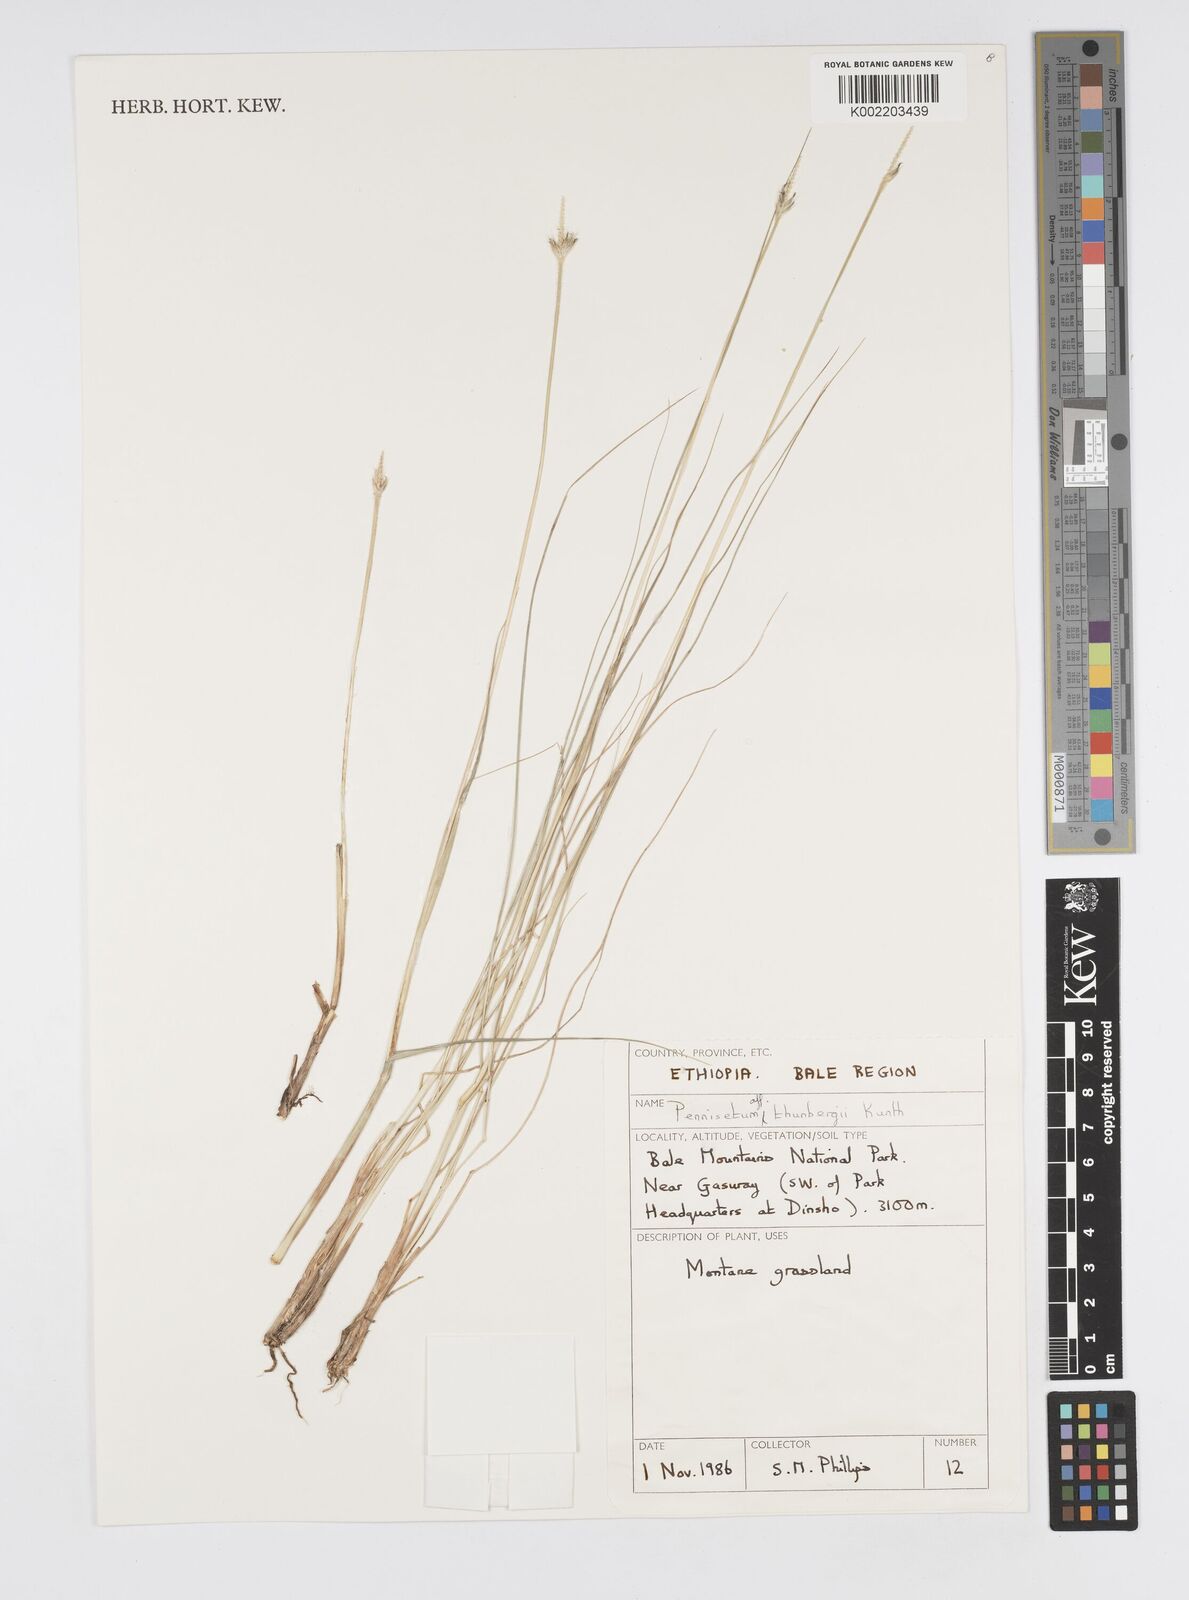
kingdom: Plantae
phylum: Tracheophyta
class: Liliopsida
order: Poales
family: Poaceae
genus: Cenchrus
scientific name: Cenchrus geniculatus
